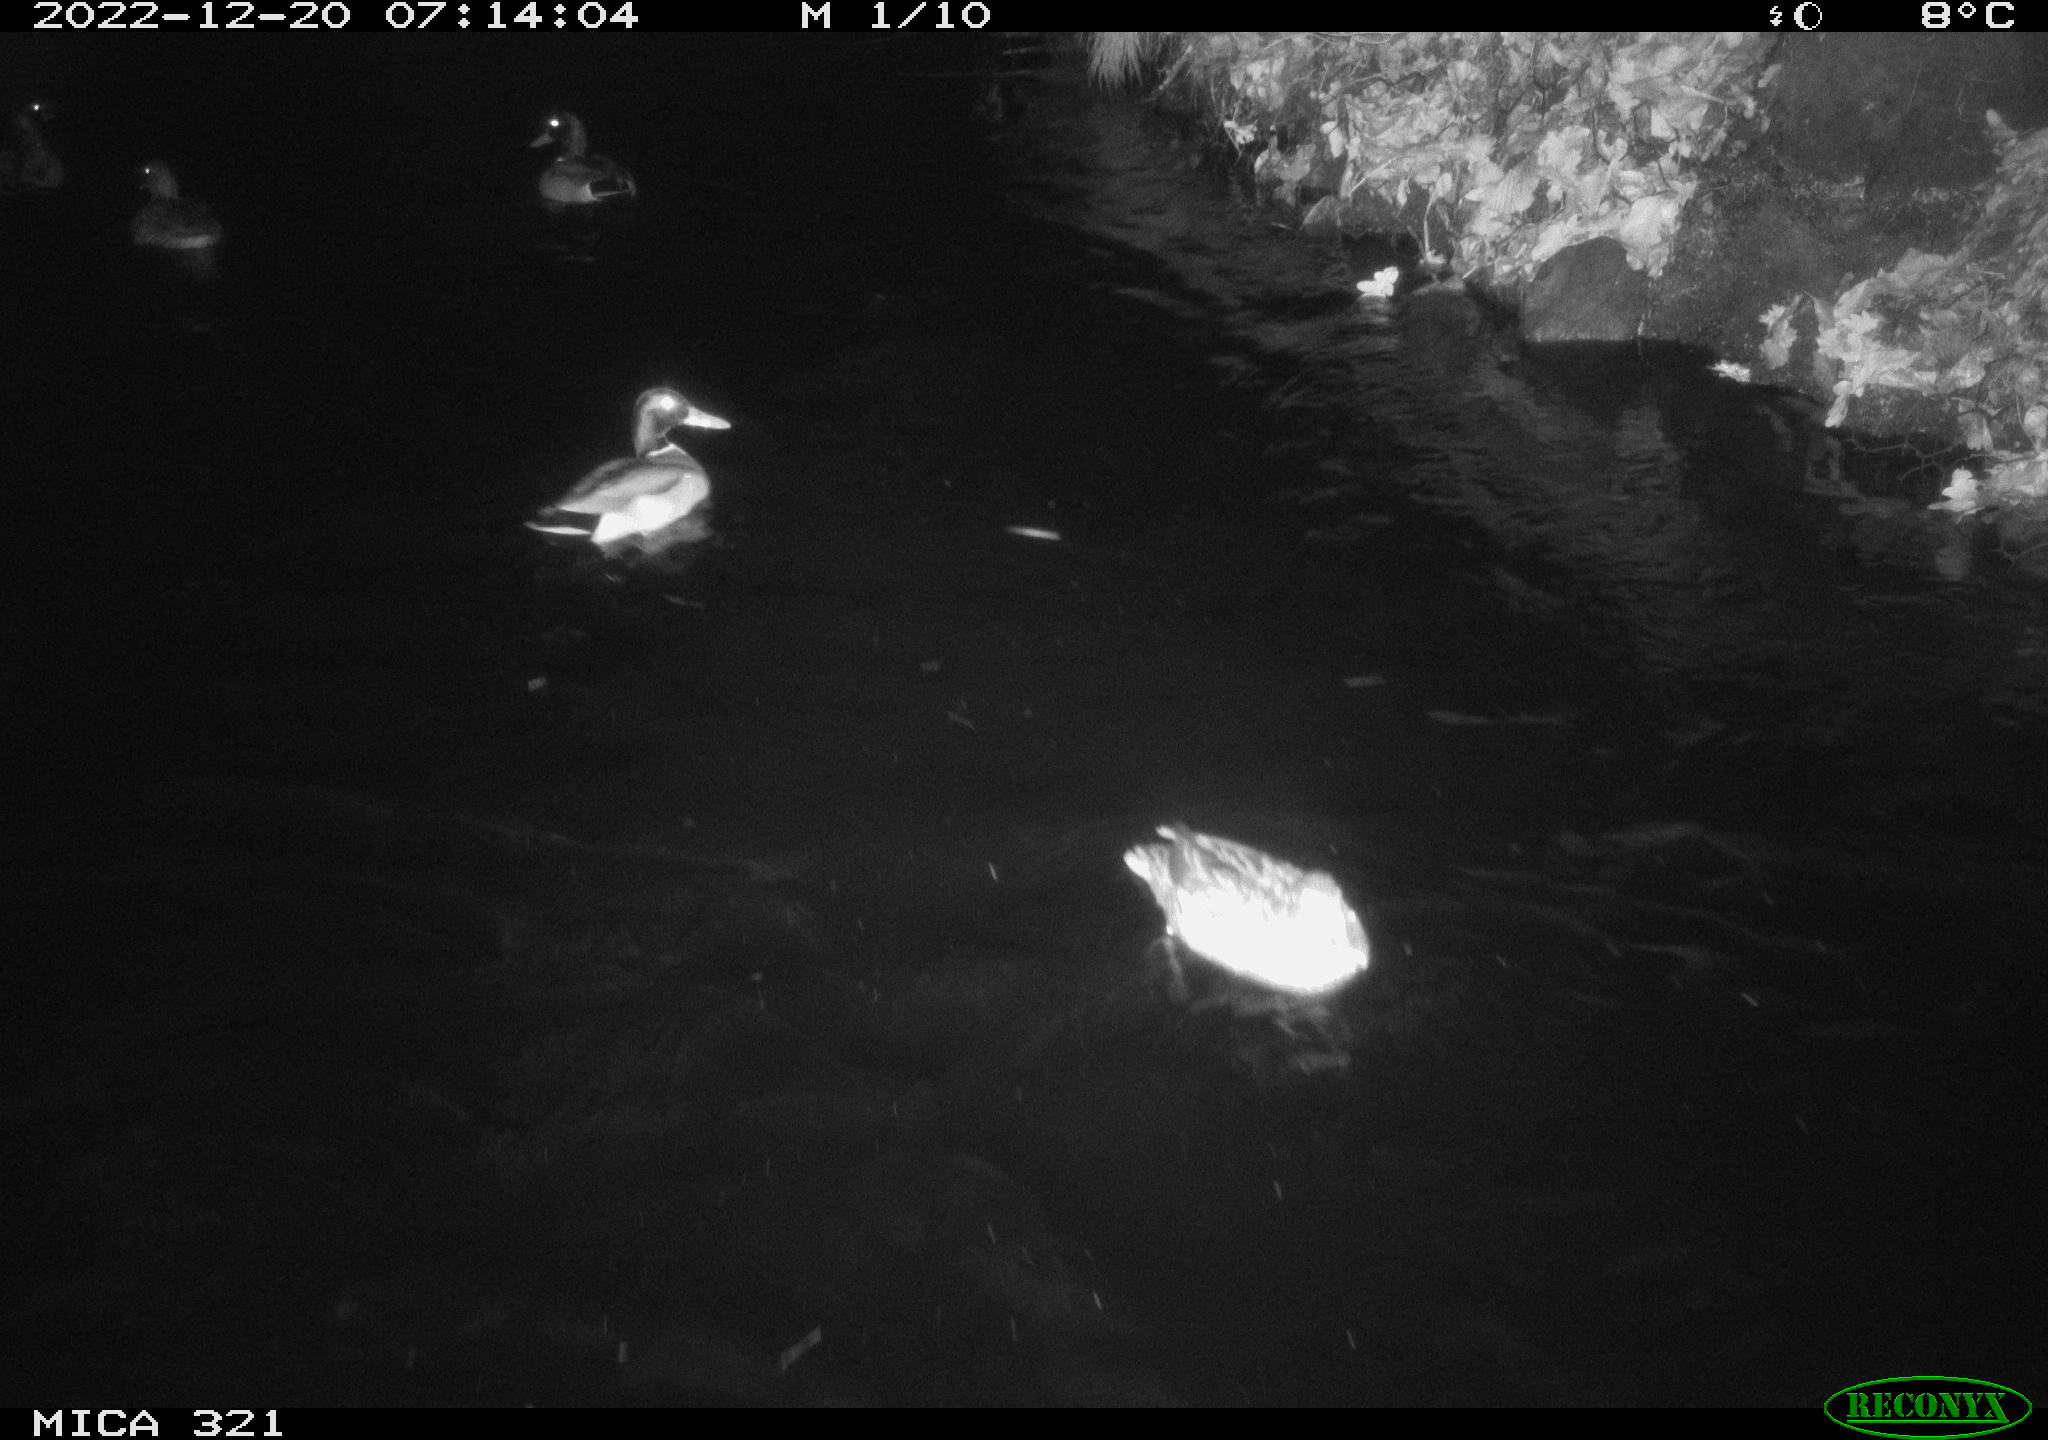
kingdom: Animalia
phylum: Chordata
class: Aves
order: Anseriformes
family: Anatidae
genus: Anas
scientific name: Anas
